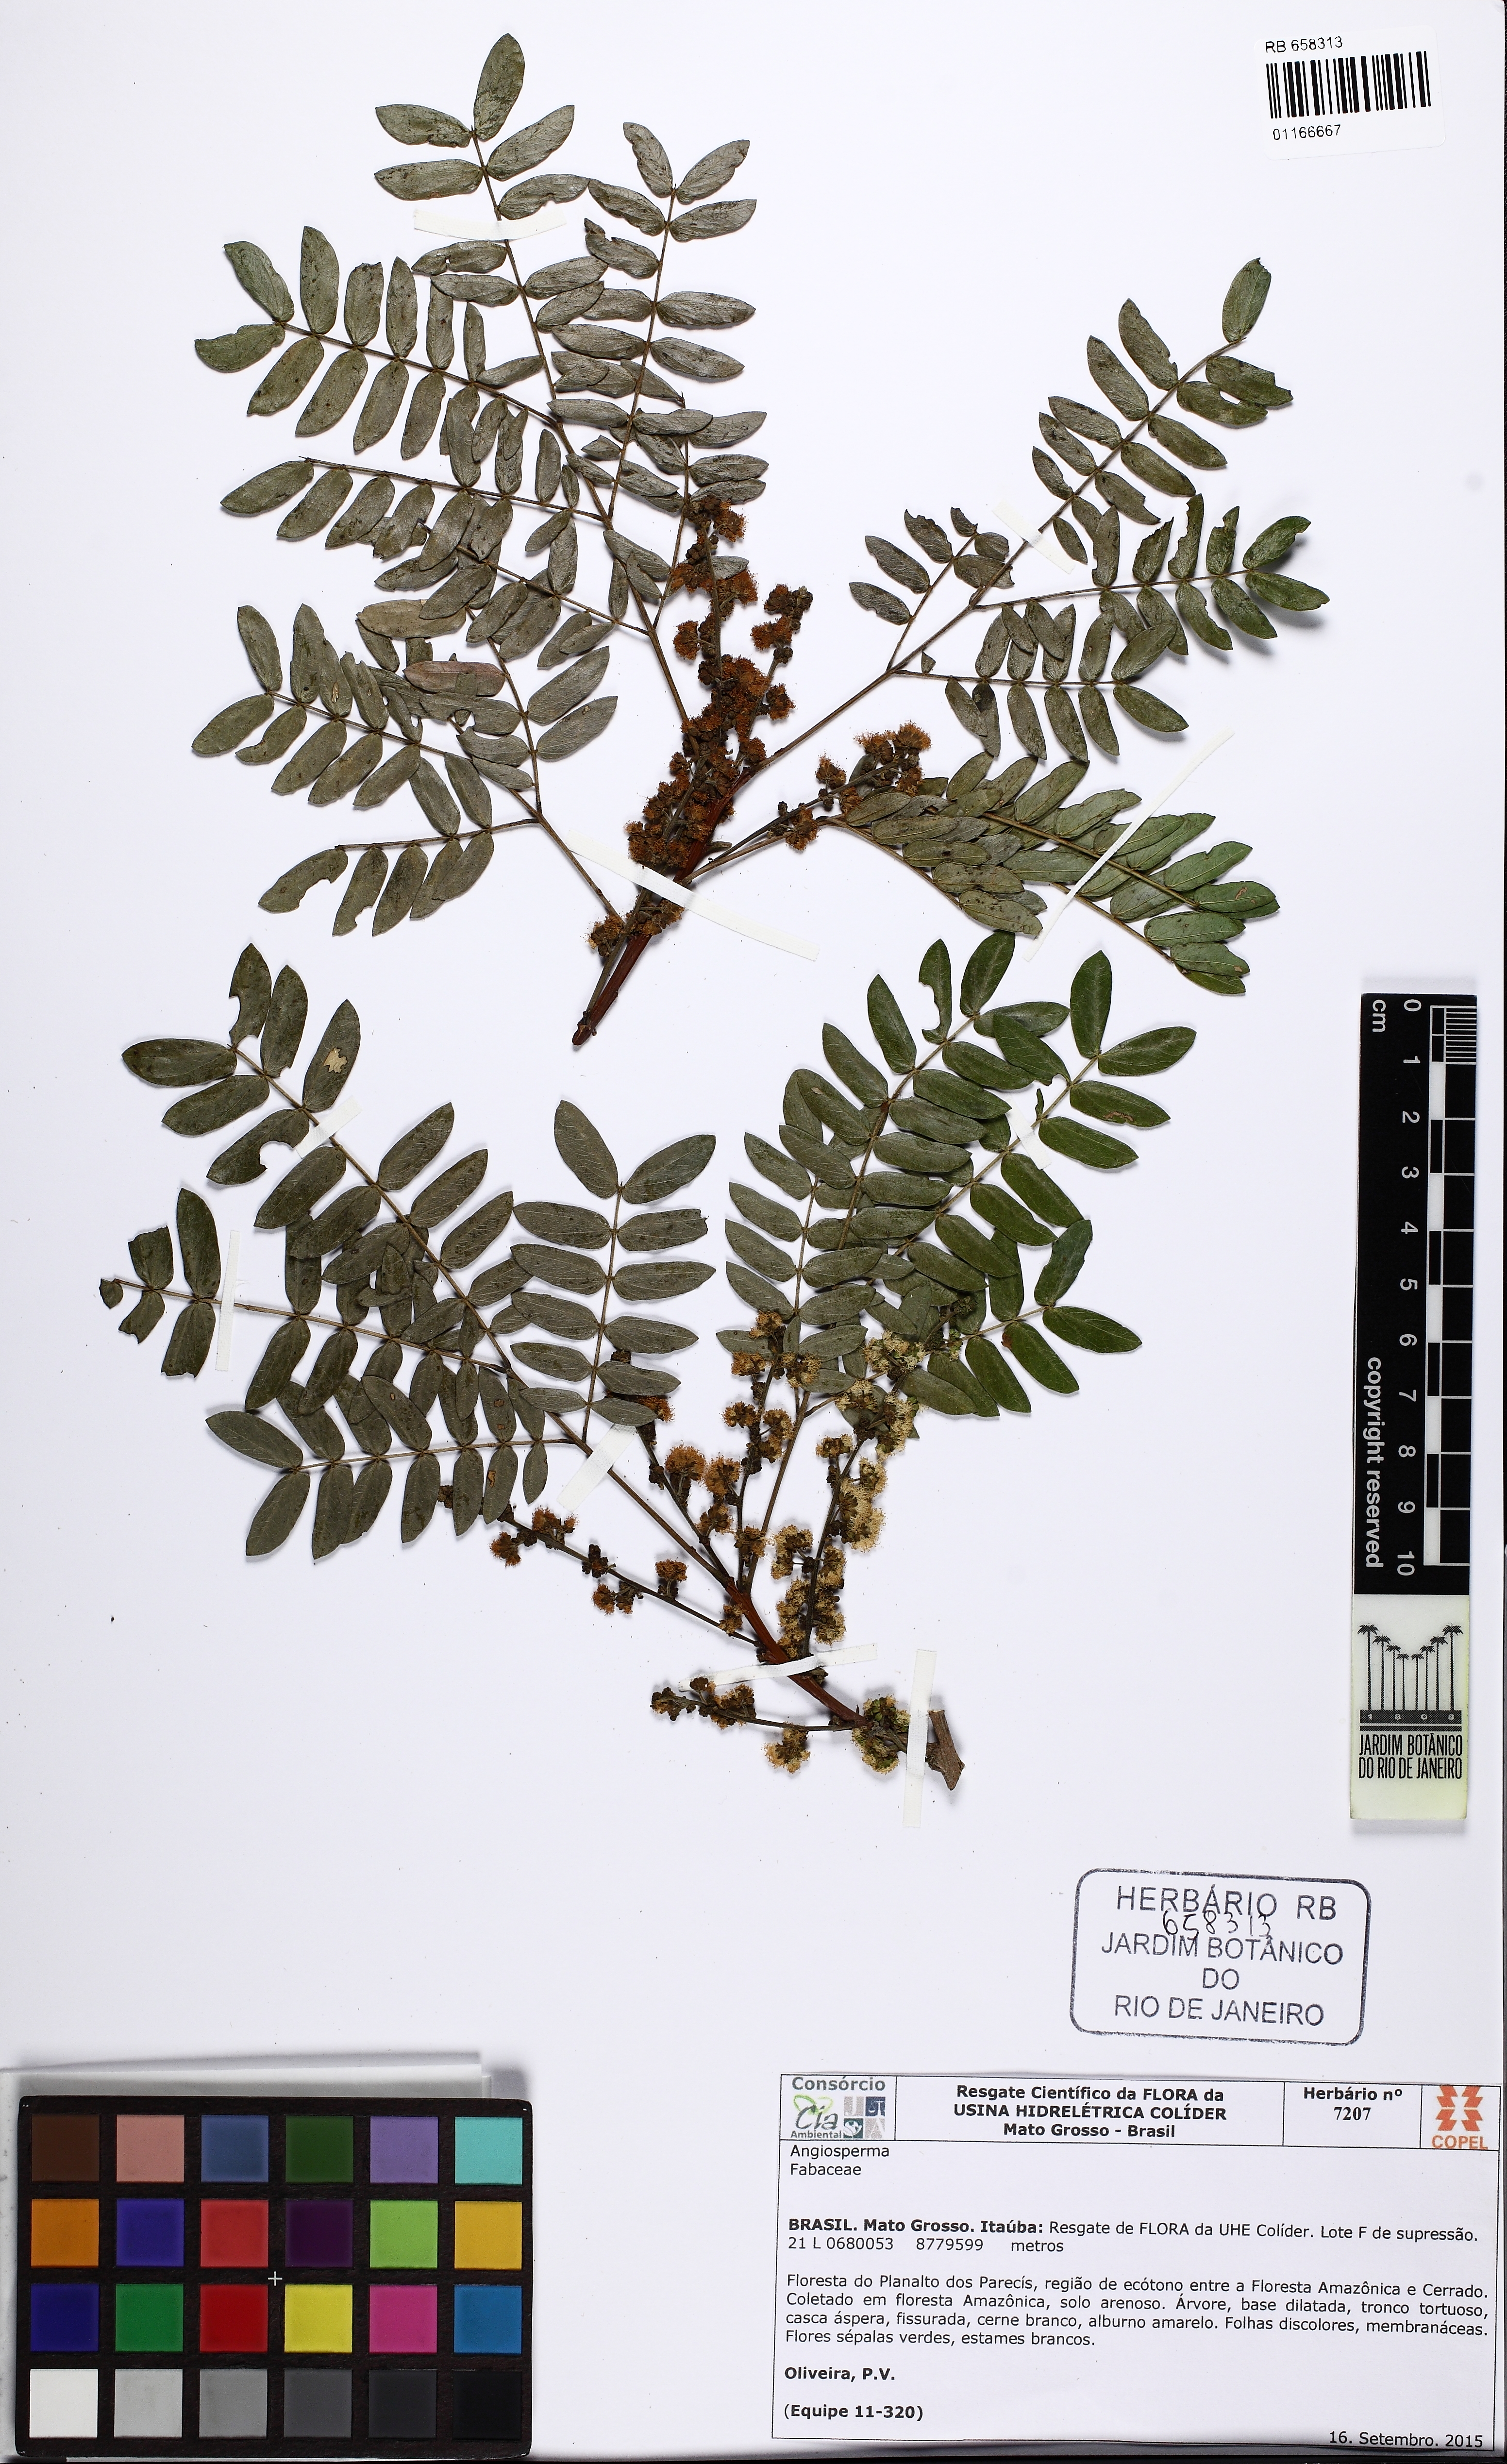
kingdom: Plantae
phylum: Tracheophyta
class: Magnoliopsida
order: Fabales
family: Fabaceae
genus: Albizia
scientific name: Albizia inundata
